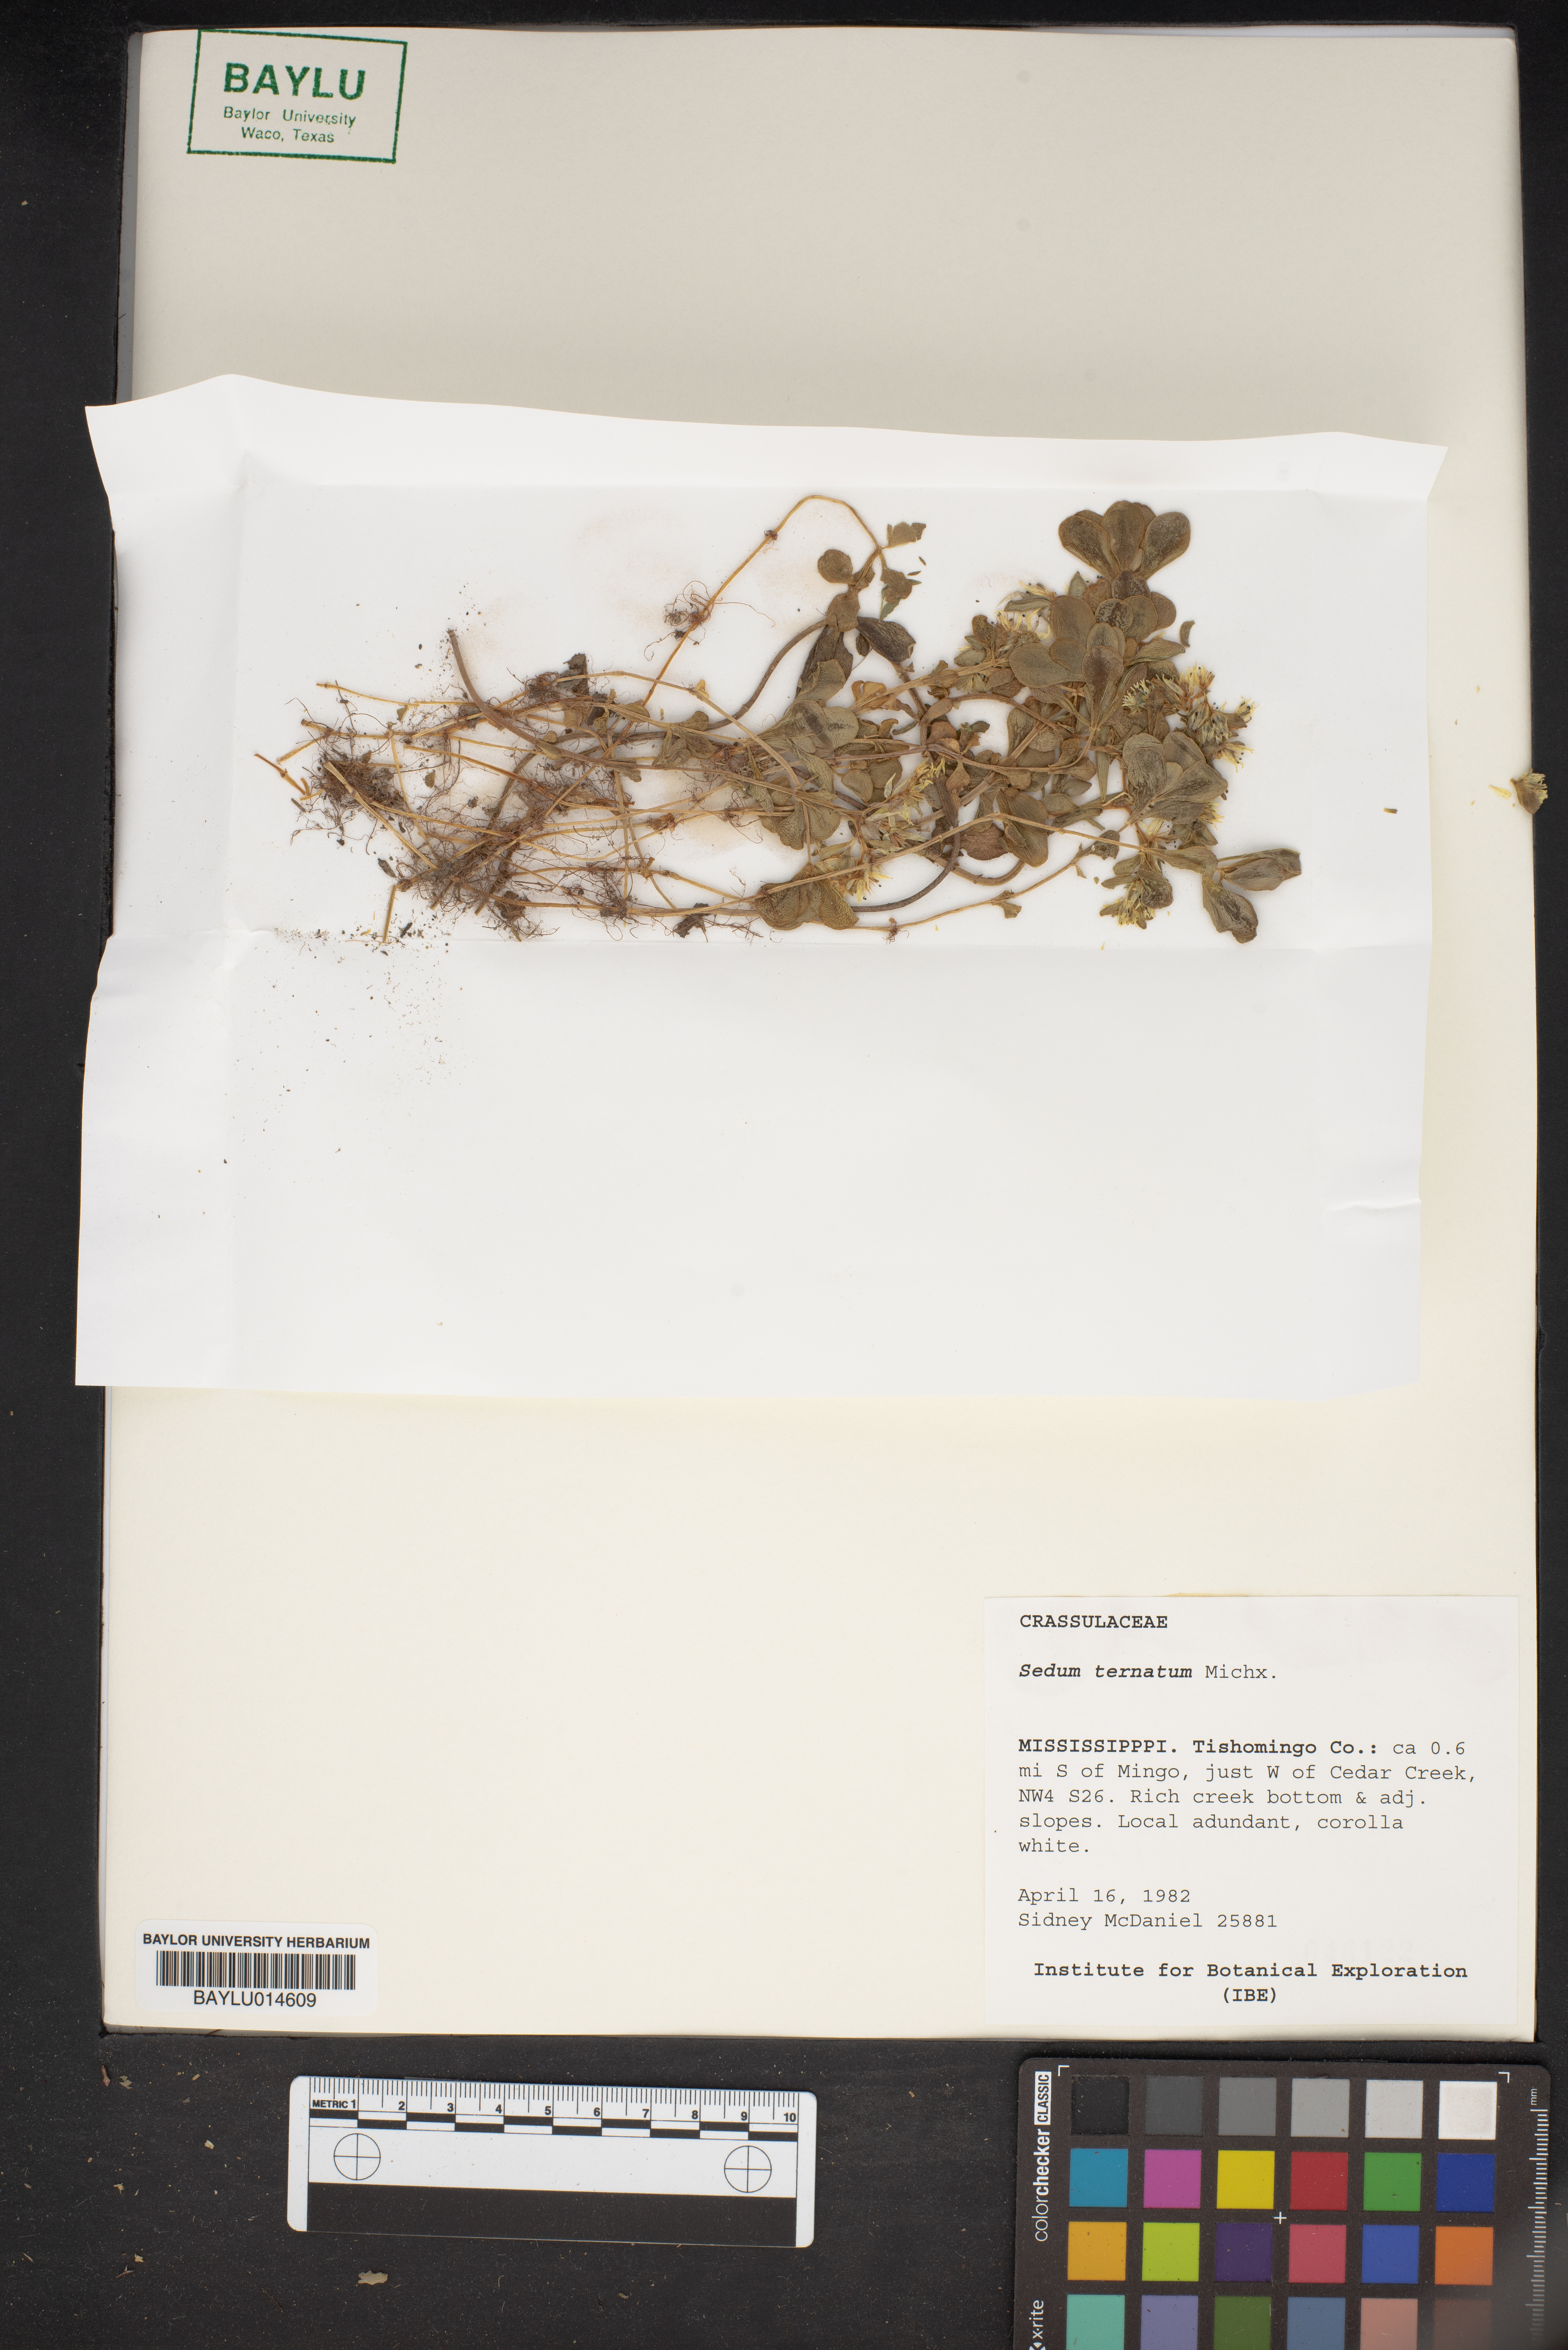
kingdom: Plantae
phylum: Tracheophyta
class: Magnoliopsida
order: Saxifragales
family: Crassulaceae
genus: Sedum
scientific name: Sedum ternatum
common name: Wild stonecrop
